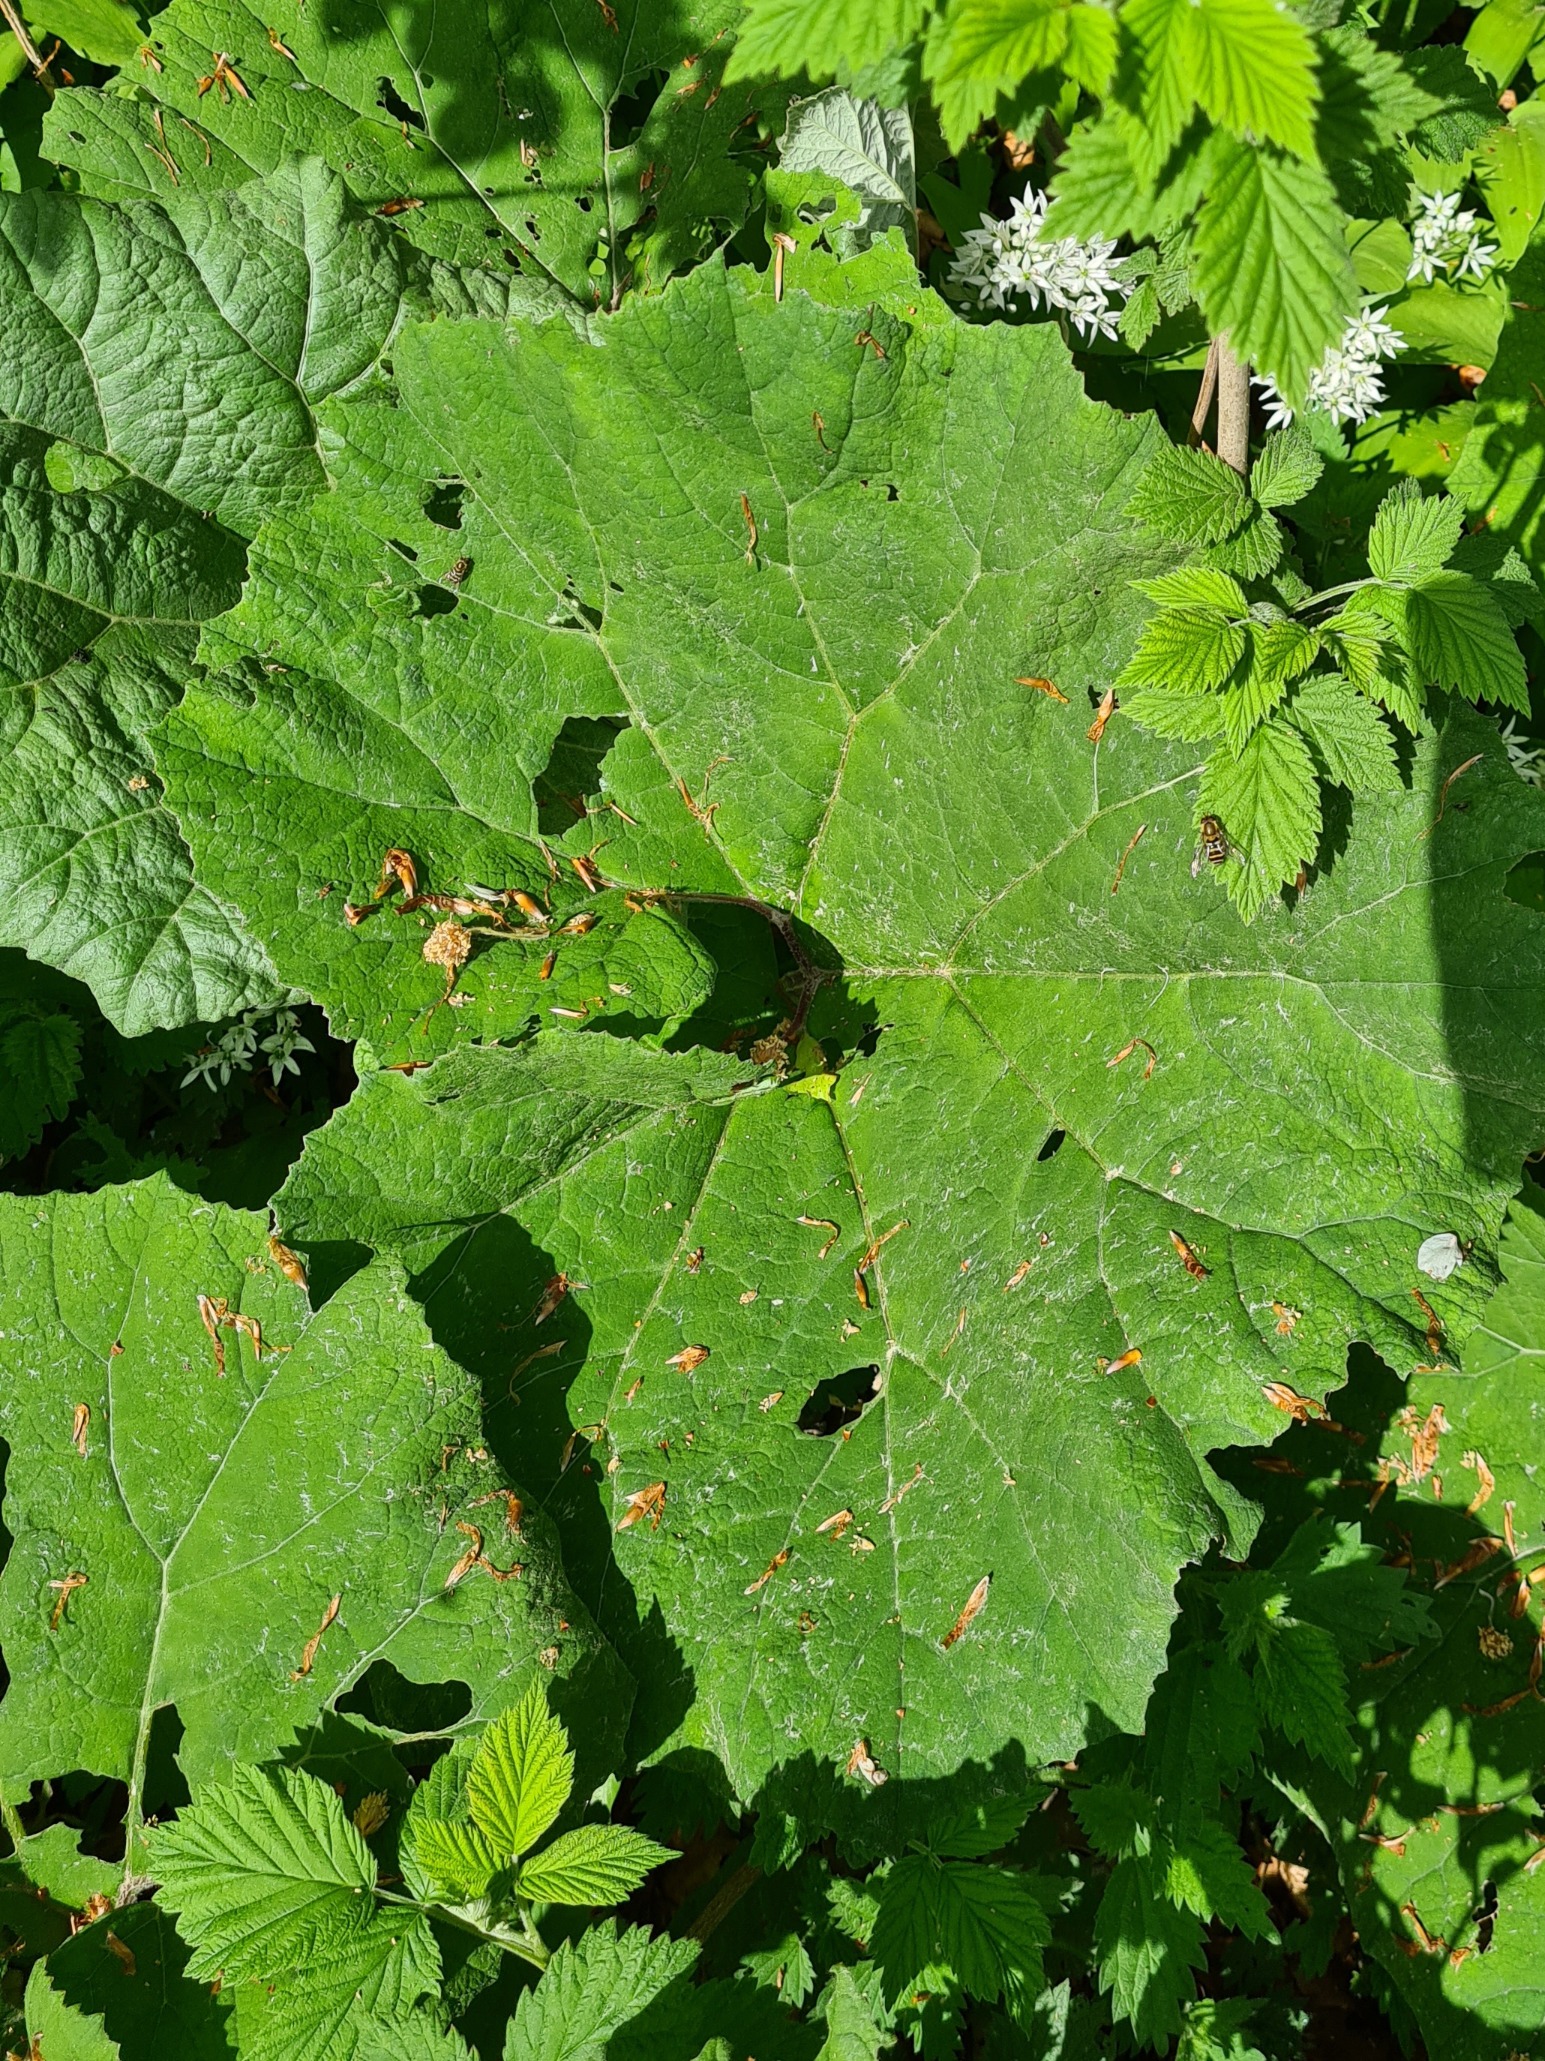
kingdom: Plantae
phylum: Tracheophyta
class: Magnoliopsida
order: Asterales
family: Asteraceae
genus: Petasites
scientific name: Petasites hybridus
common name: Rød hestehov
